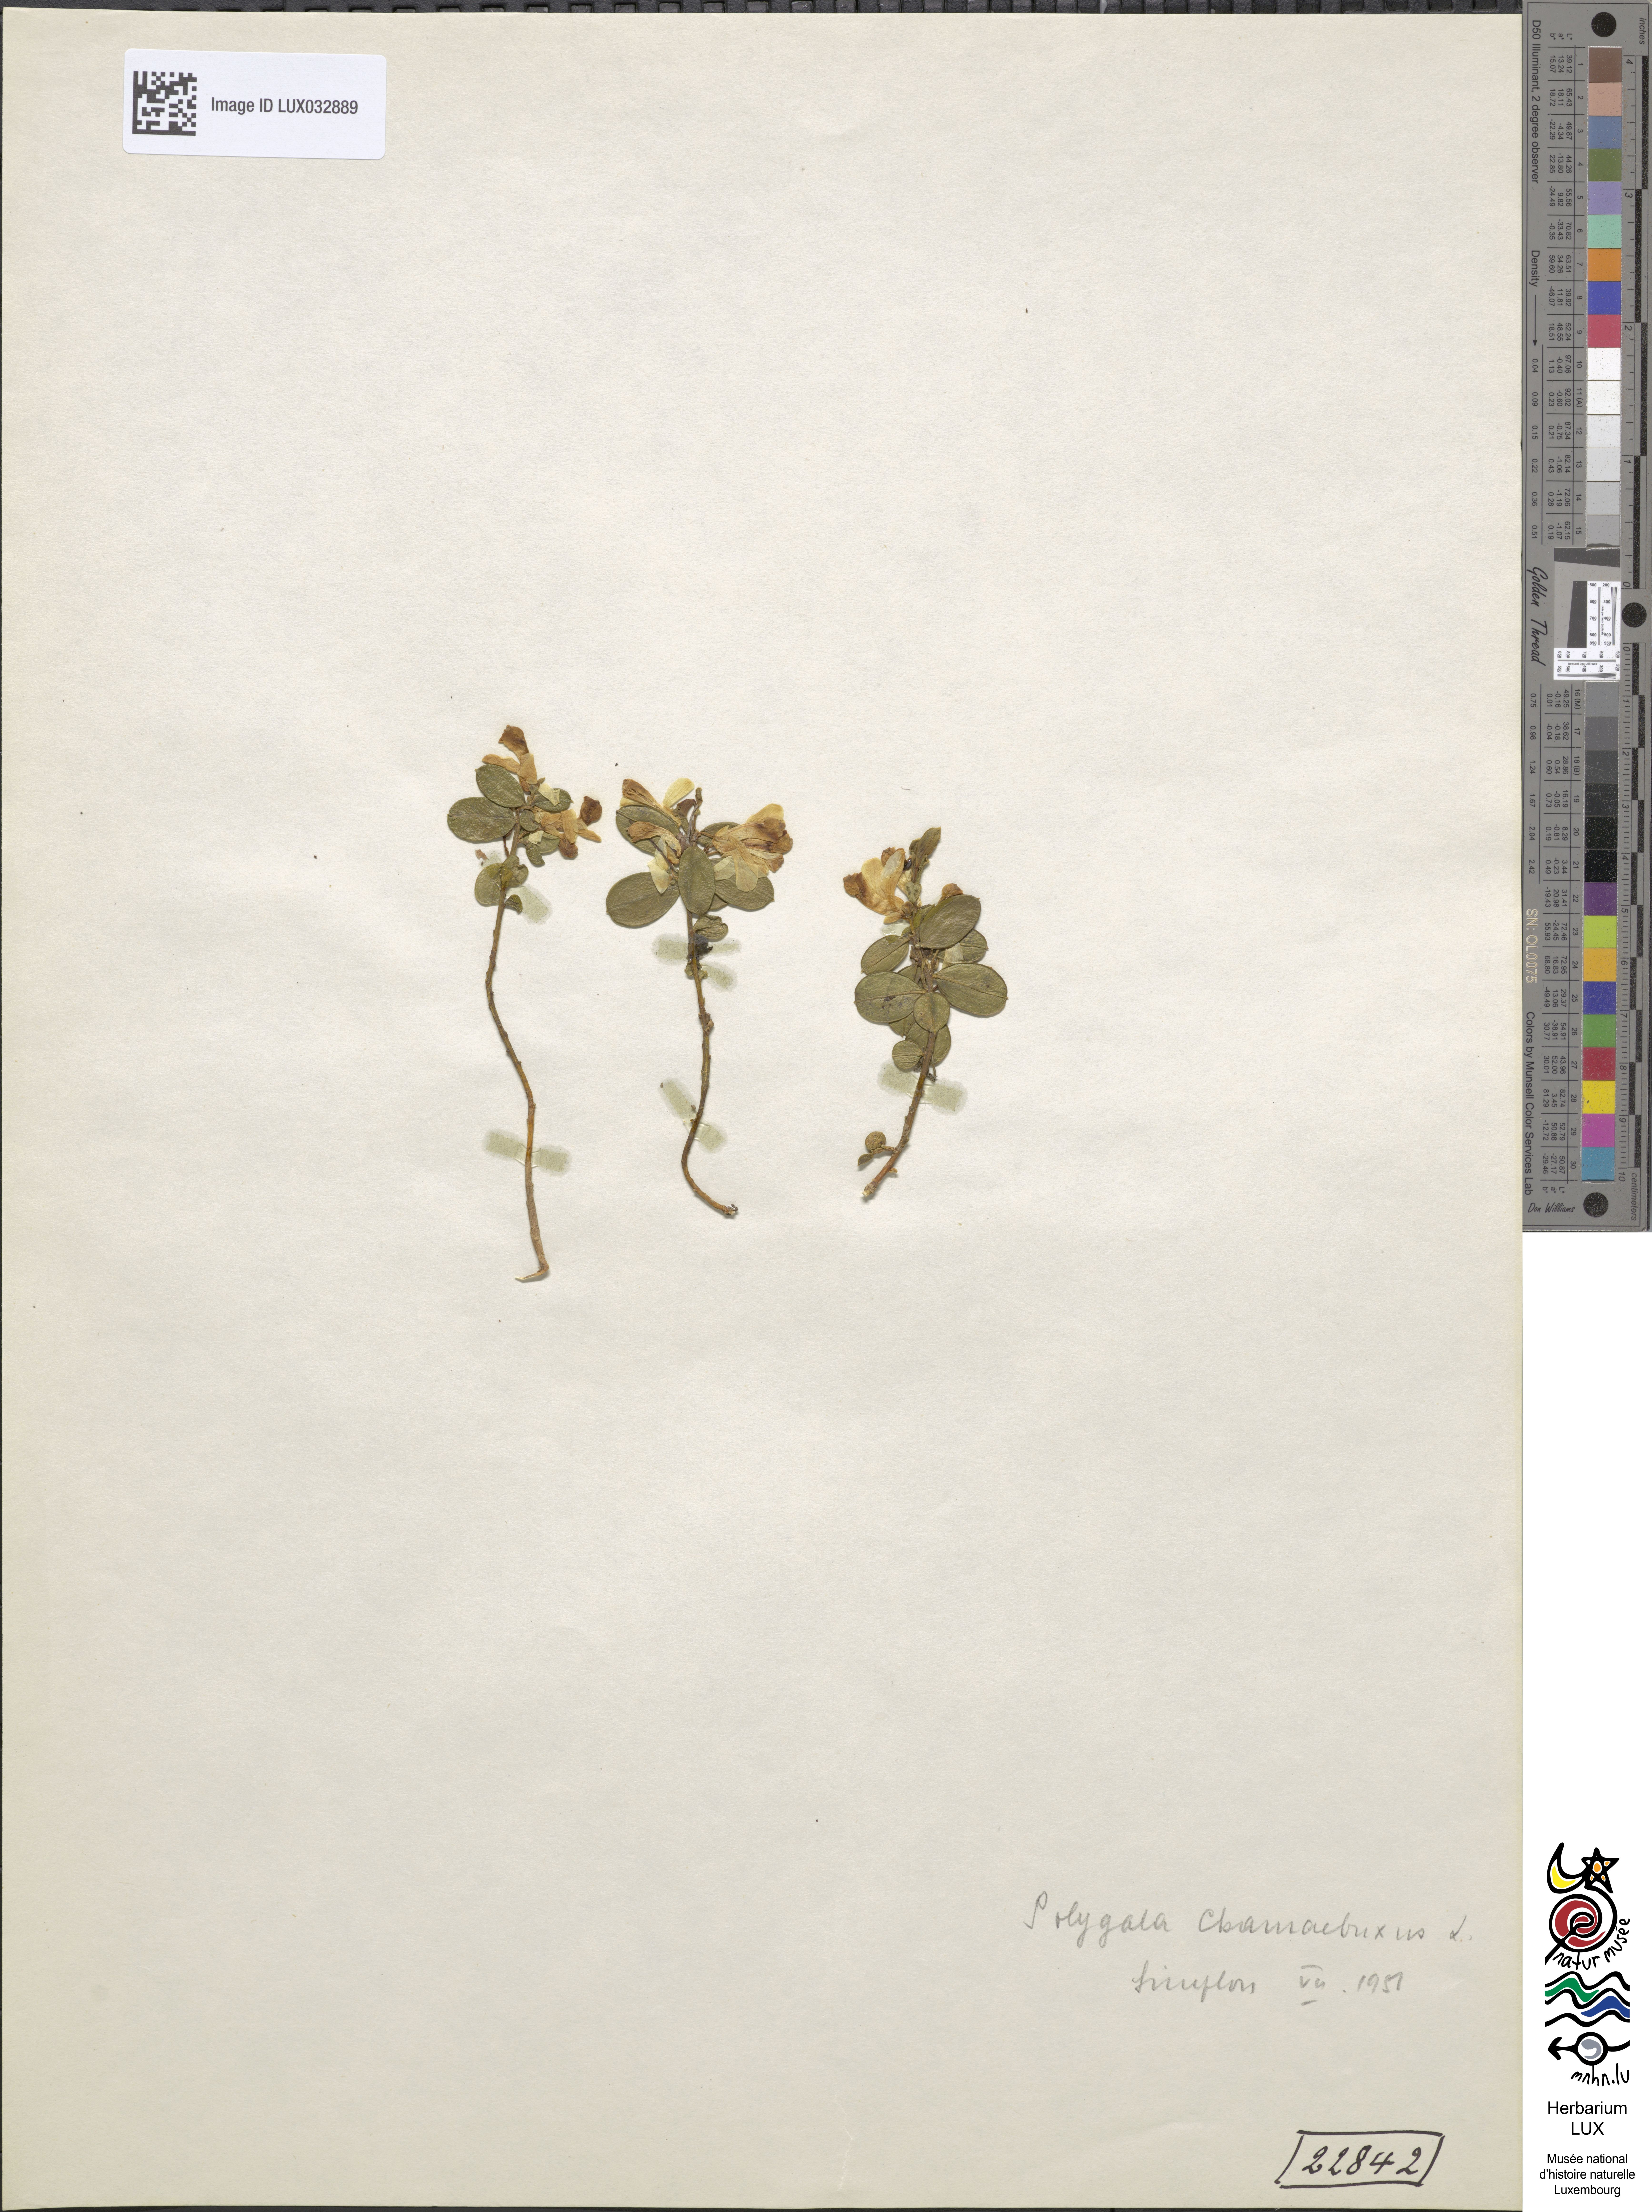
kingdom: Plantae
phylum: Tracheophyta
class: Magnoliopsida
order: Fabales
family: Polygalaceae
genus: Polygaloides
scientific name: Polygaloides chamaebuxus
